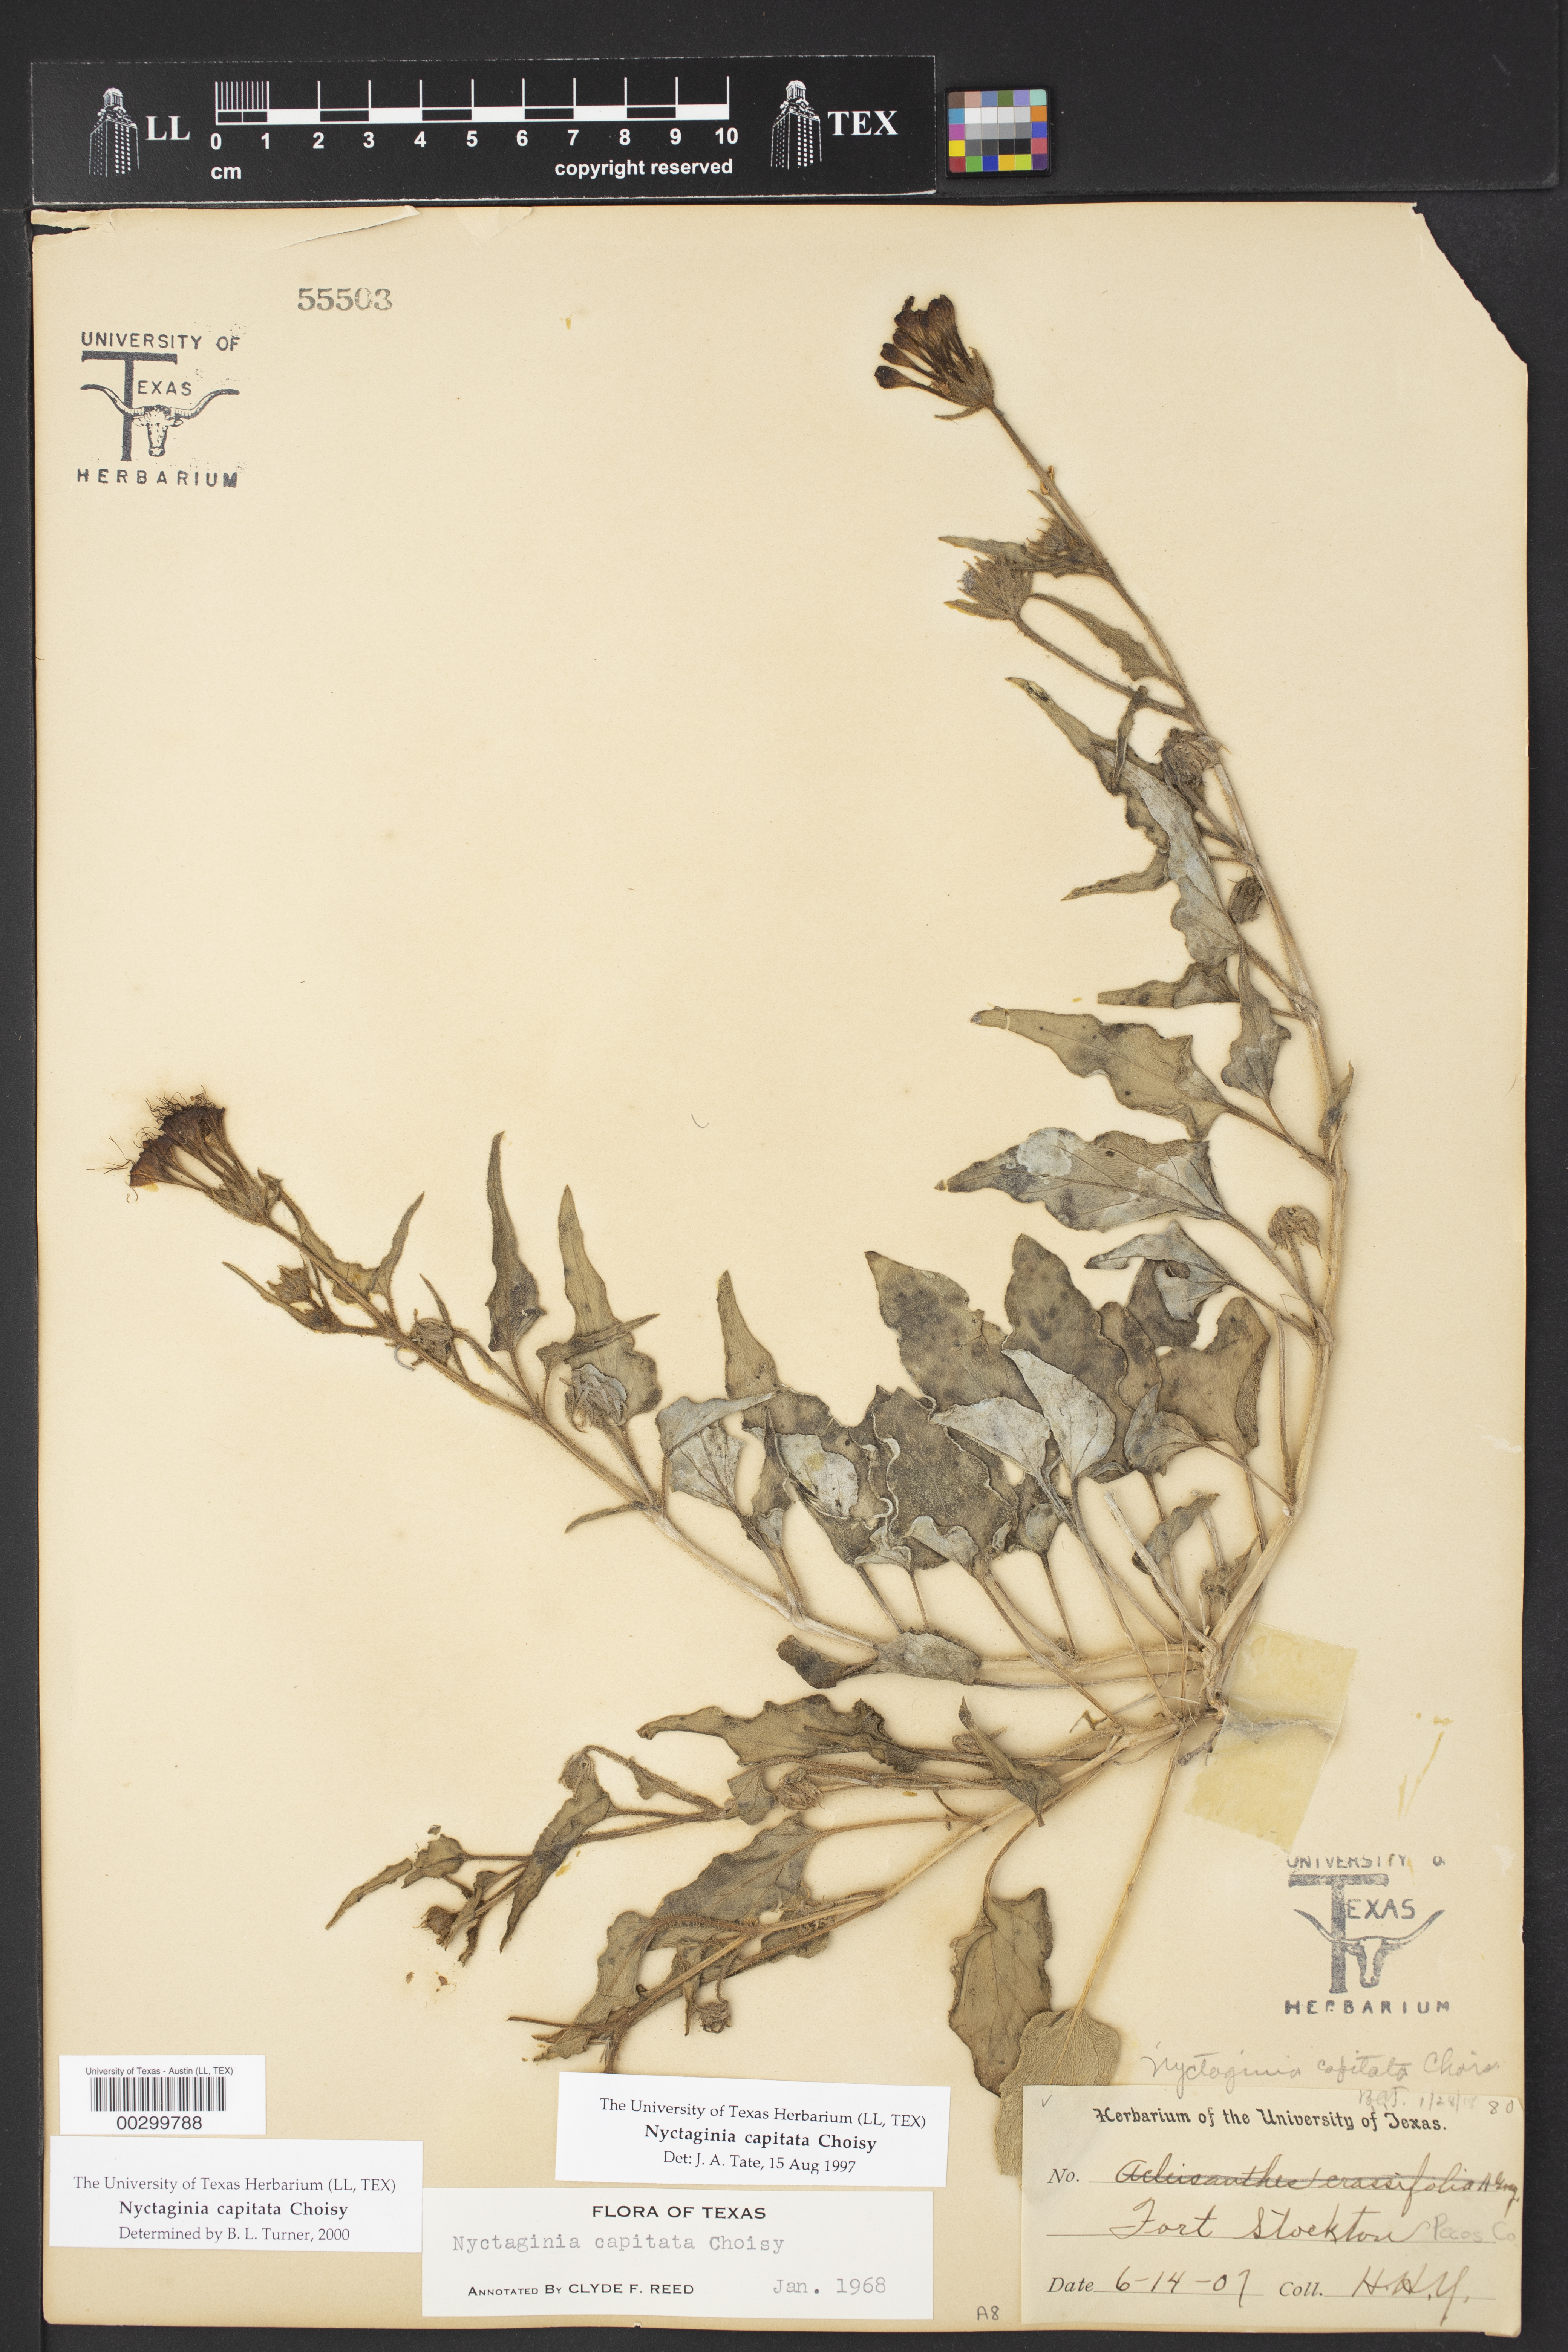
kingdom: Plantae
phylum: Tracheophyta
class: Magnoliopsida
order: Caryophyllales
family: Nyctaginaceae
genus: Nyctaginia
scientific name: Nyctaginia capitata
